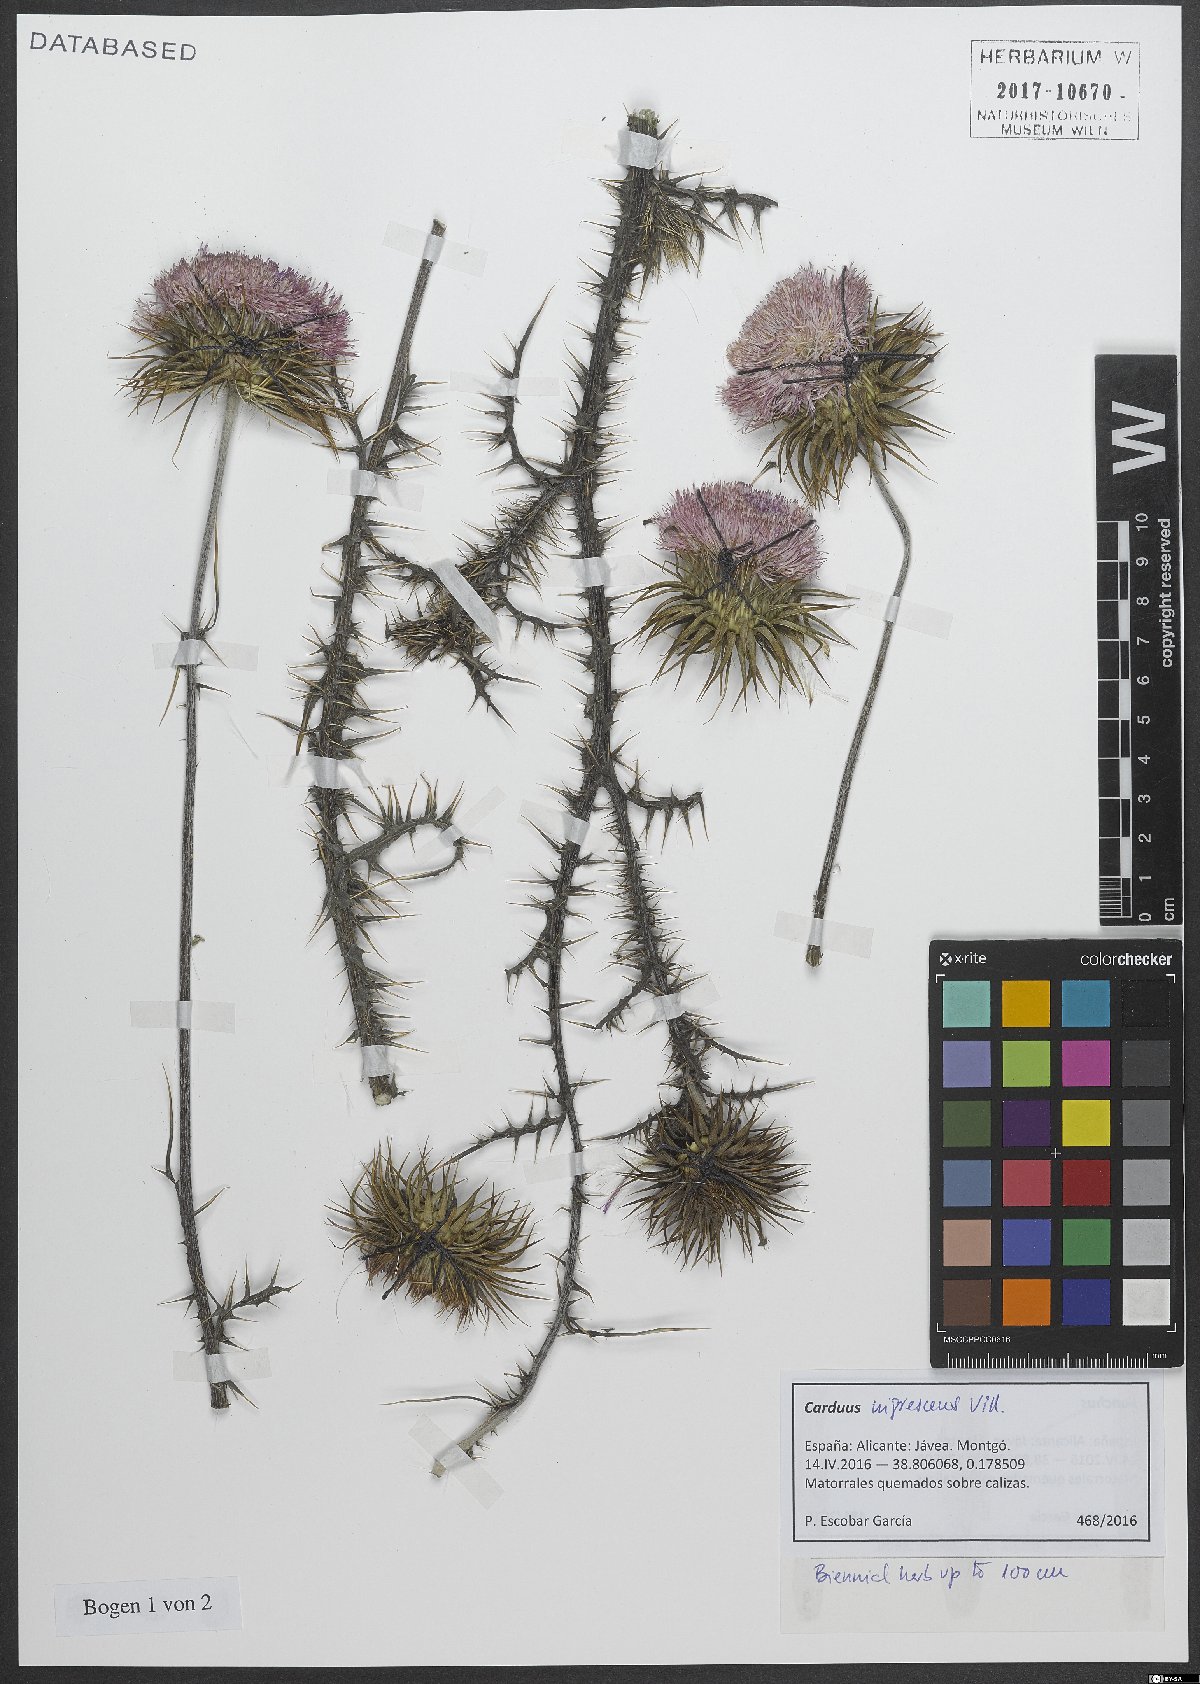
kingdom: Plantae
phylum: Tracheophyta
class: Magnoliopsida
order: Asterales
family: Asteraceae
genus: Carduus
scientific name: Carduus nigrescens
